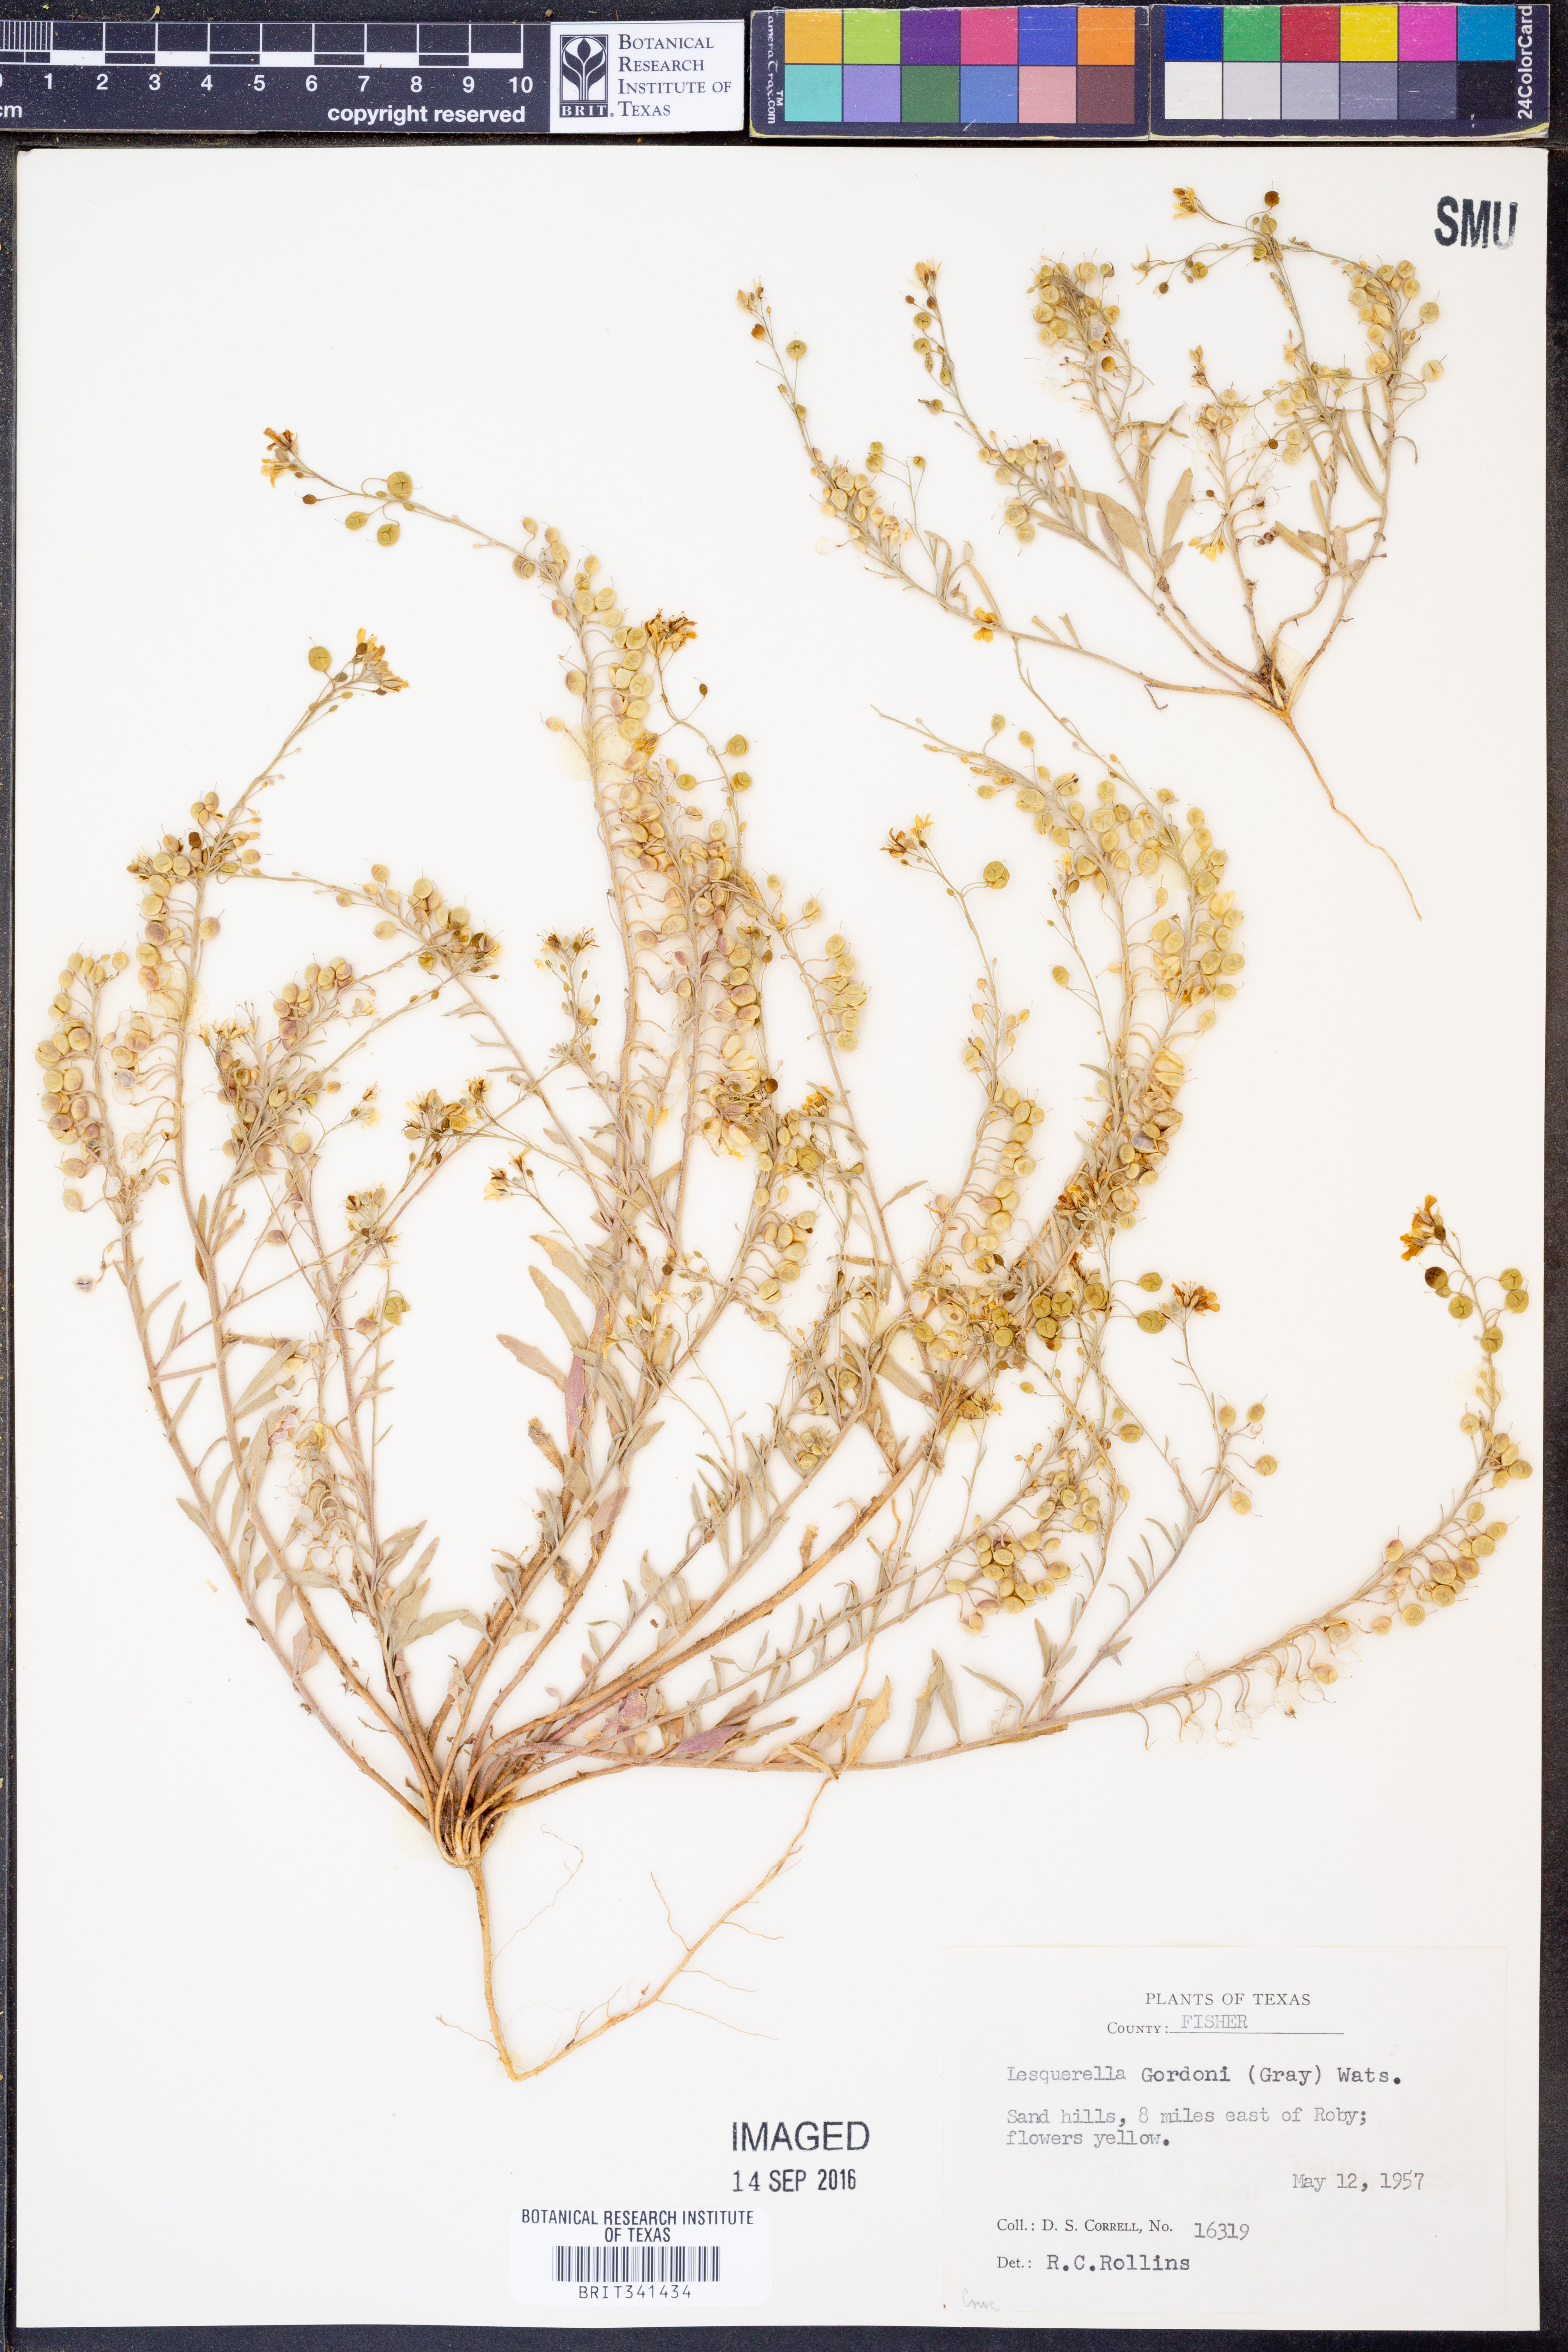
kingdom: Plantae
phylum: Tracheophyta
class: Magnoliopsida
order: Brassicales
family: Brassicaceae
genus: Physaria
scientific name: Physaria gordonii
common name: Gordon's bladderpod
